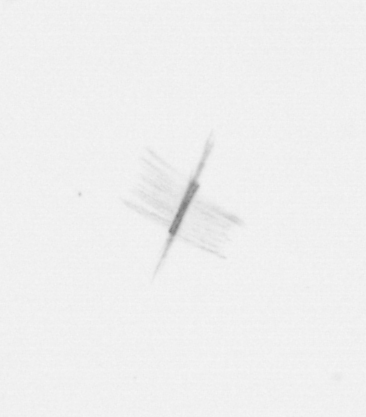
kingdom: Chromista
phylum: Ochrophyta
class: Bacillariophyceae
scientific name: Bacillariophyceae
